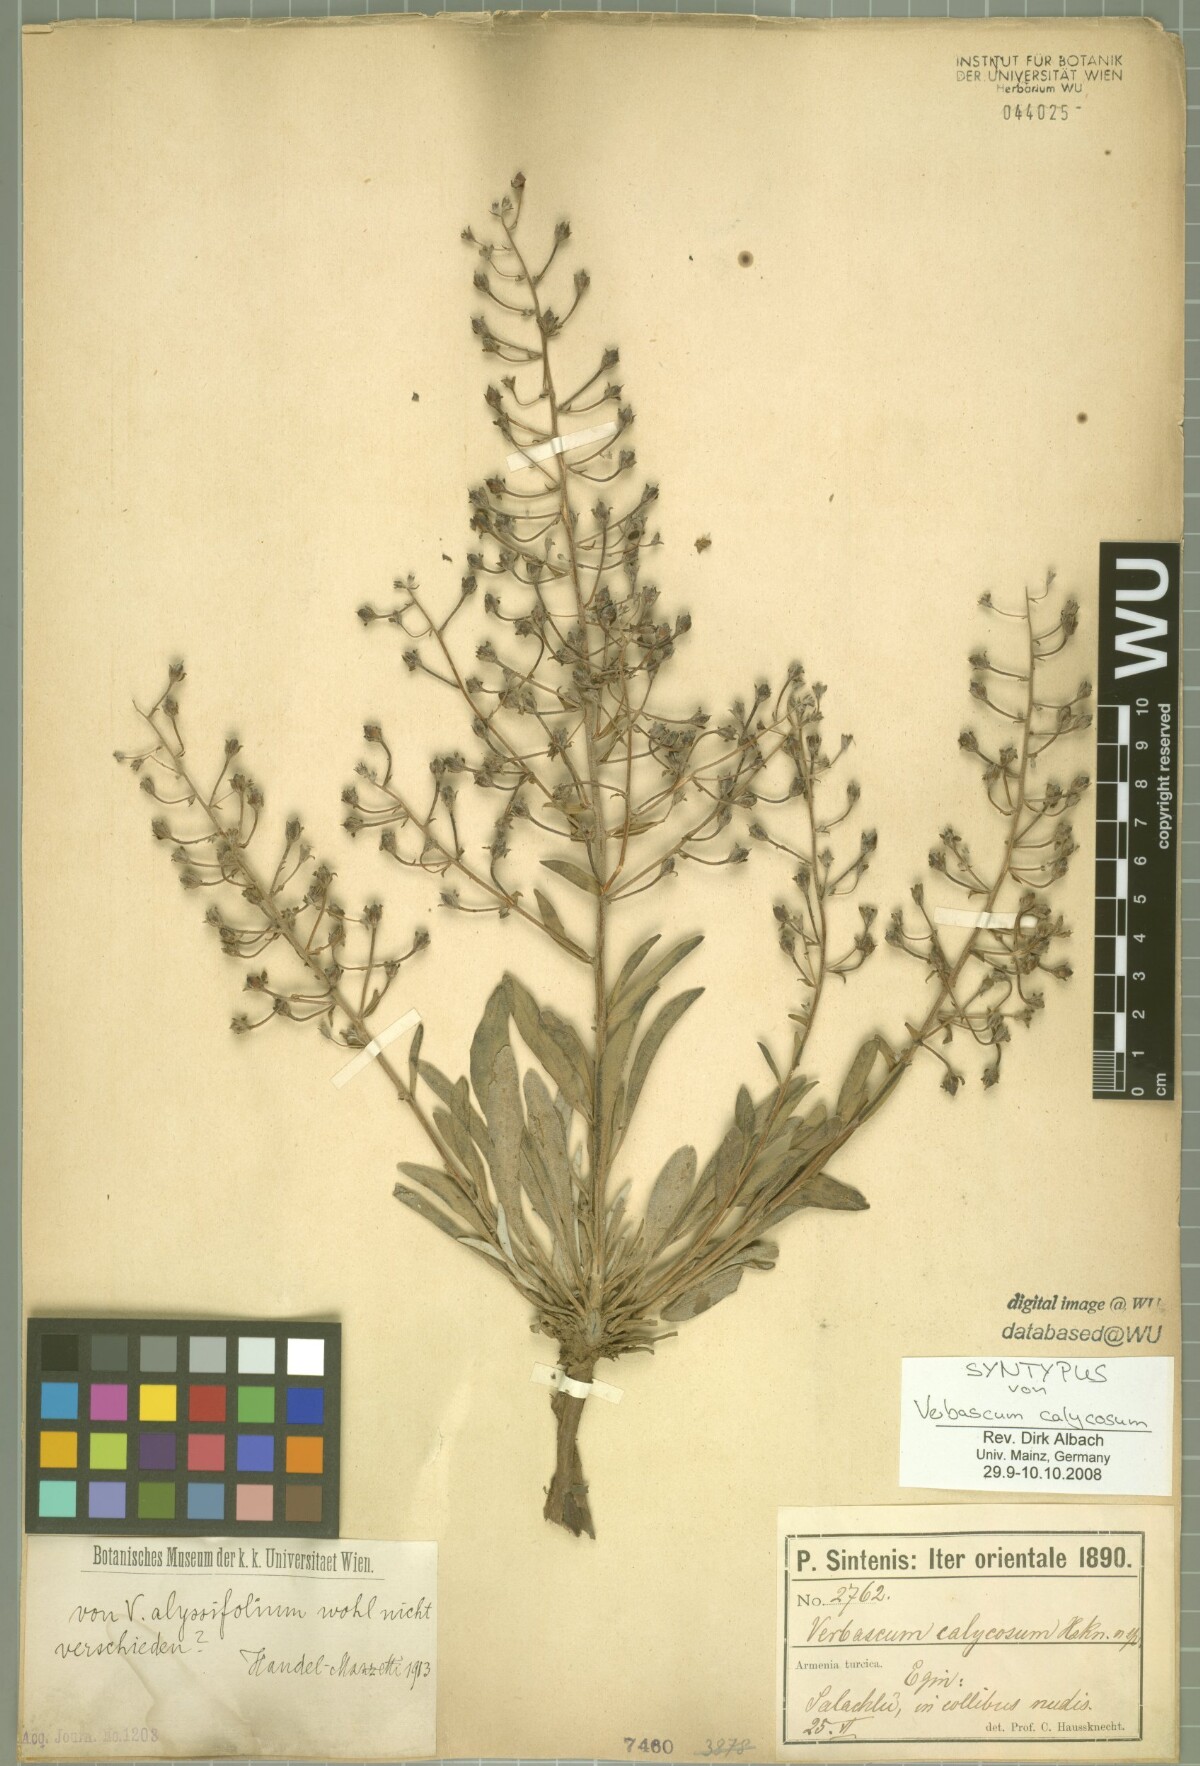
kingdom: Plantae
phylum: Tracheophyta
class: Magnoliopsida
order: Lamiales
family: Scrophulariaceae
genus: Verbascum
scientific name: Verbascum calycosum
